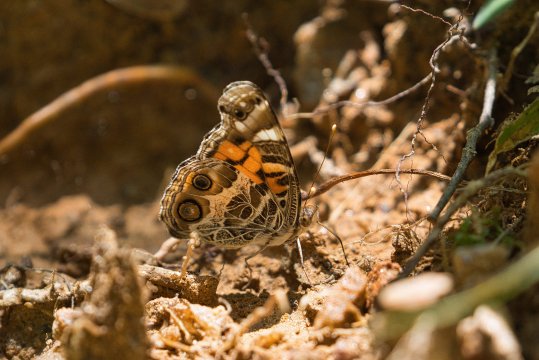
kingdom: Animalia
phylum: Arthropoda
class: Insecta
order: Lepidoptera
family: Nymphalidae
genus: Vanessa
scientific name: Vanessa virginiensis
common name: American Lady
